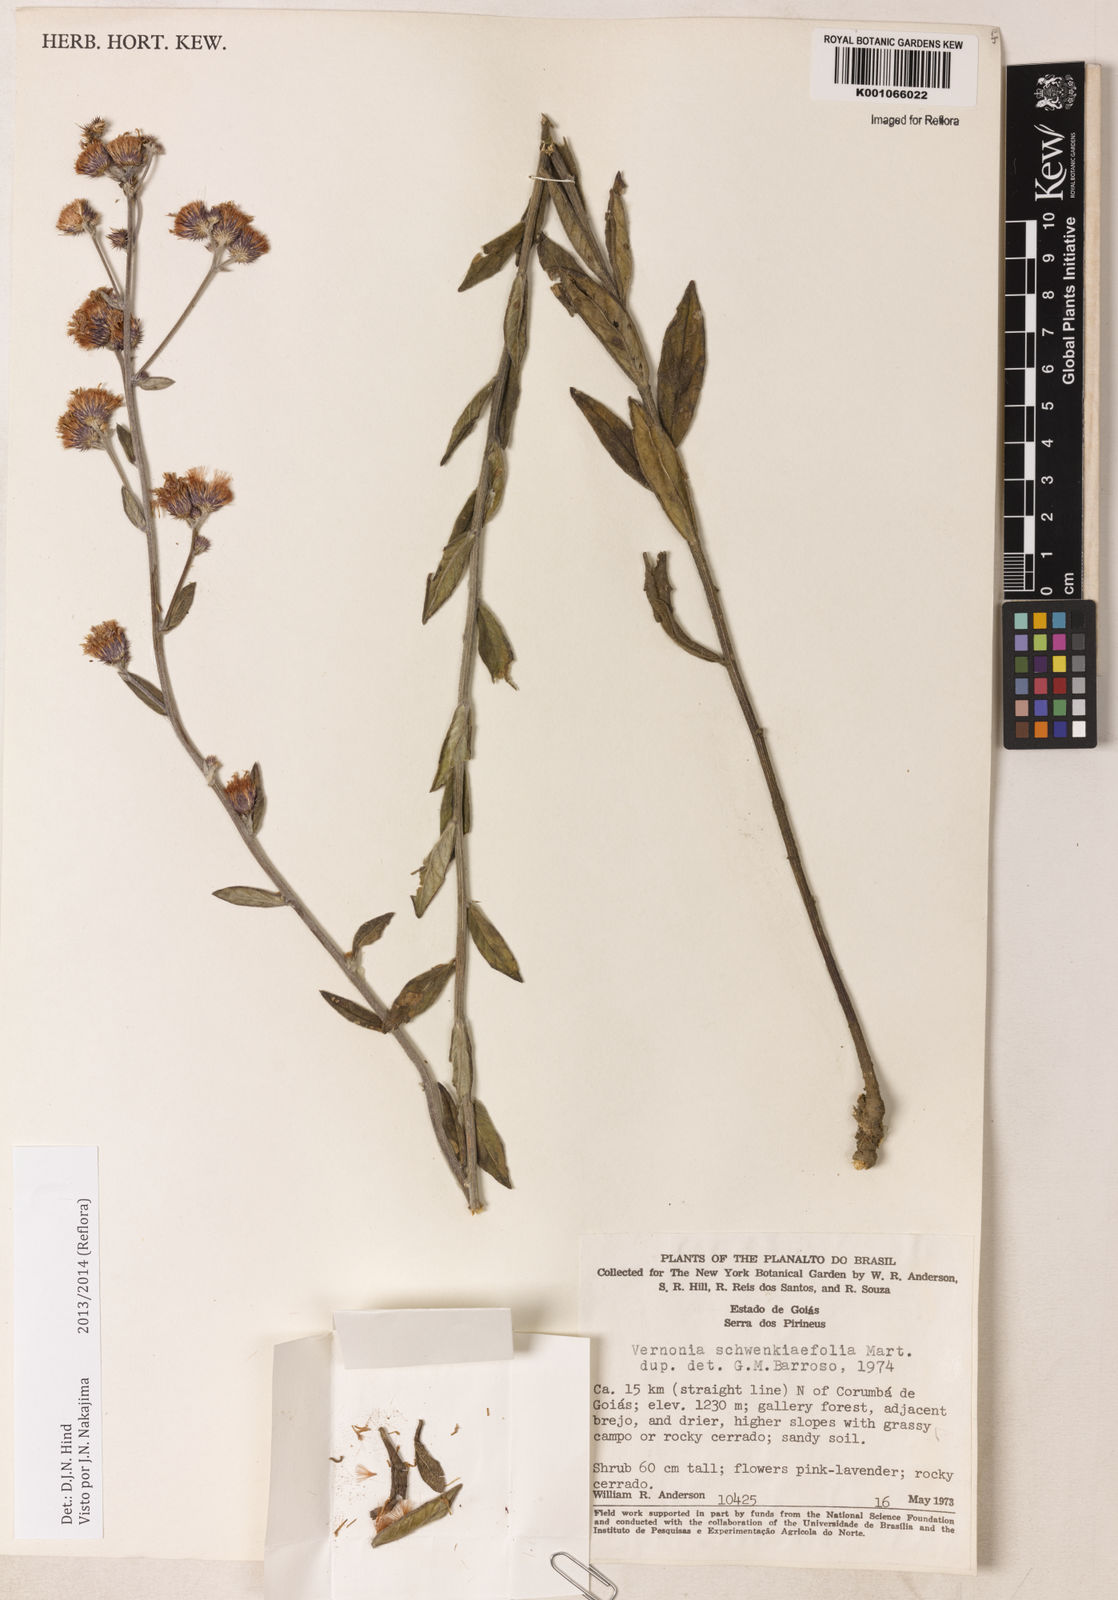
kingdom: Plantae
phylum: Tracheophyta
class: Magnoliopsida
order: Asterales
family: Asteraceae
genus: Vernonia
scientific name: Vernonia
